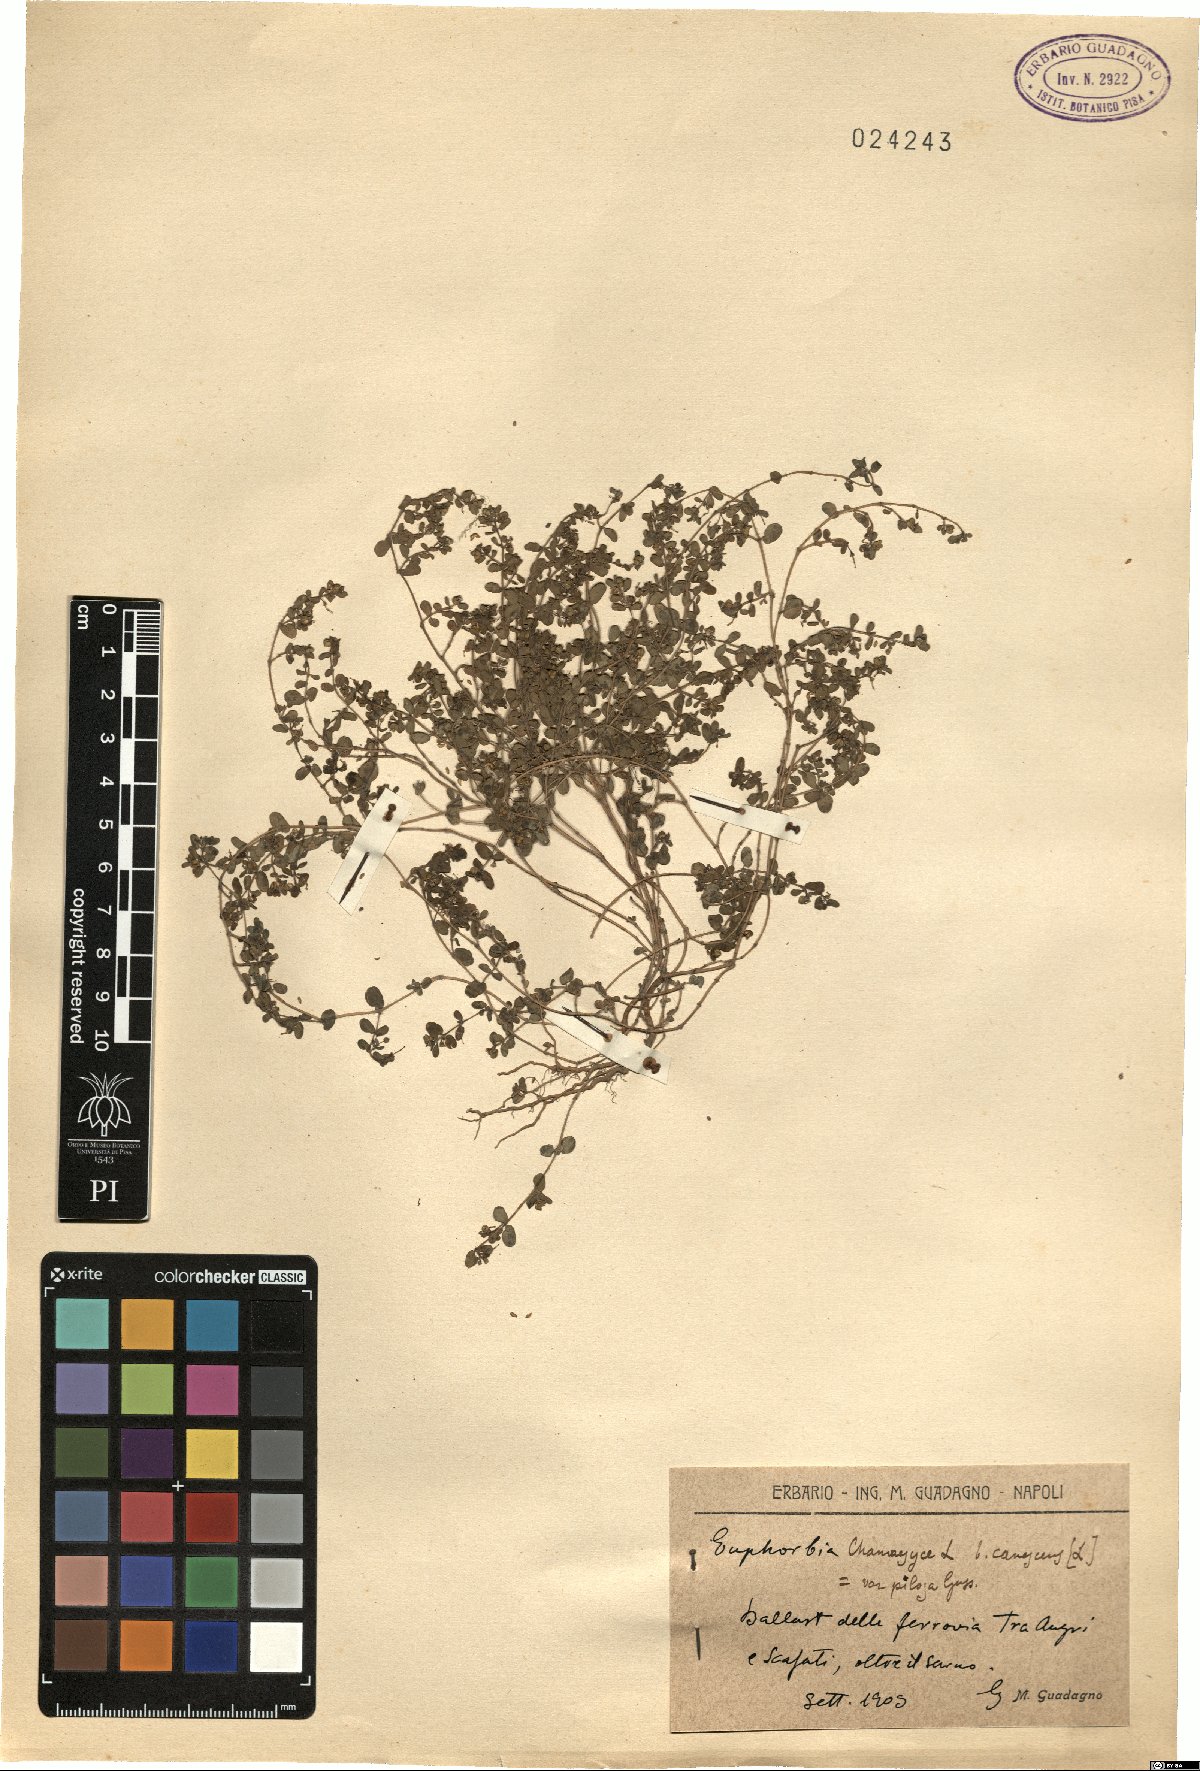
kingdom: Plantae
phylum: Tracheophyta
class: Magnoliopsida
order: Malpighiales
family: Euphorbiaceae
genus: Euphorbia
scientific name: Euphorbia chamaesyce
